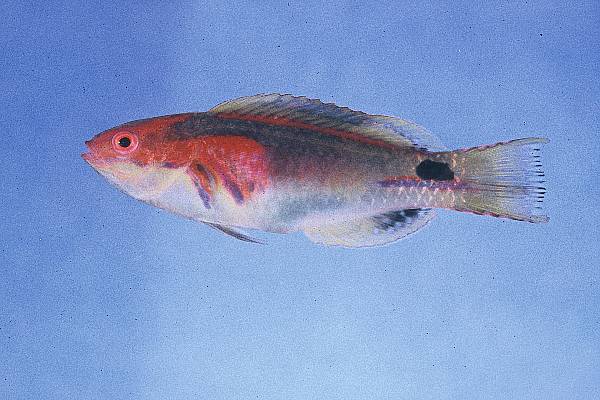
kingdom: Animalia
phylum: Chordata
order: Perciformes
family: Labridae
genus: Cirrhilabrus
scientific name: Cirrhilabrus exquisitus
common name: Exquisite wrasse
